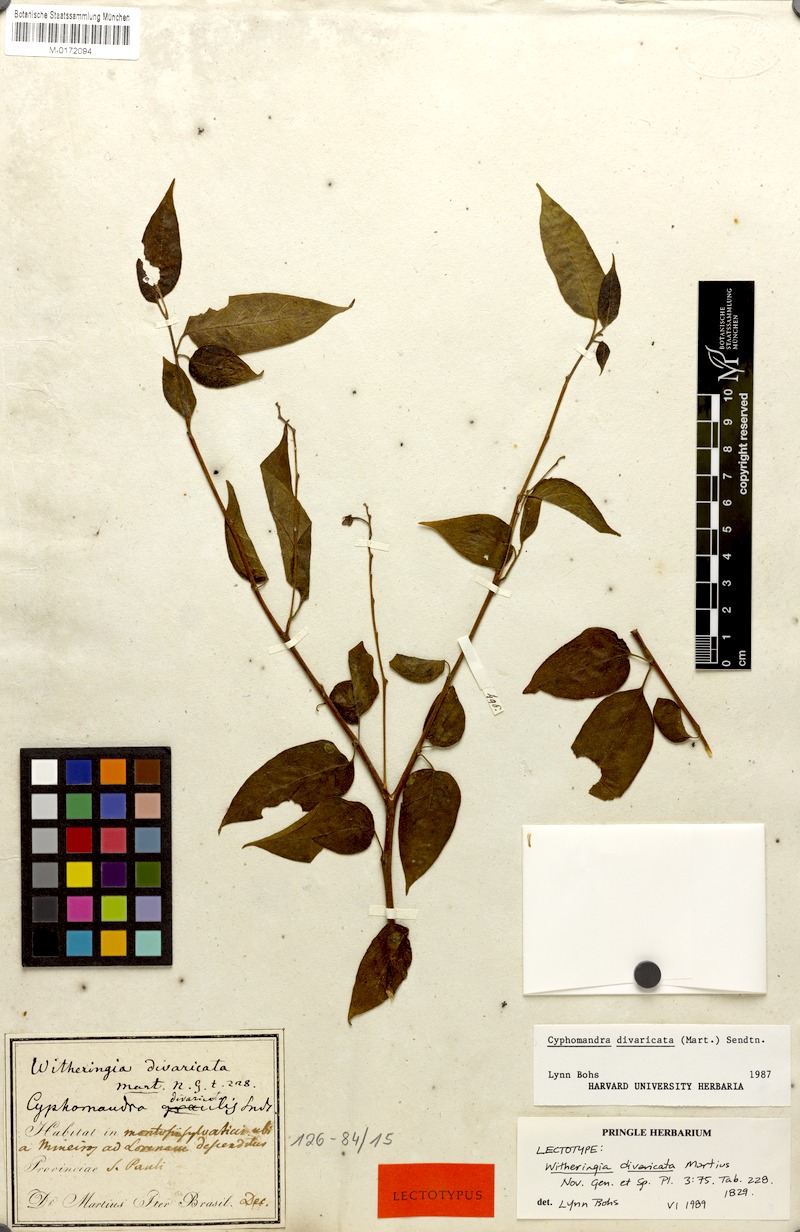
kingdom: Plantae
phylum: Tracheophyta
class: Magnoliopsida
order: Solanales
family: Solanaceae
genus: Solanum
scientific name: Solanum melissarum
